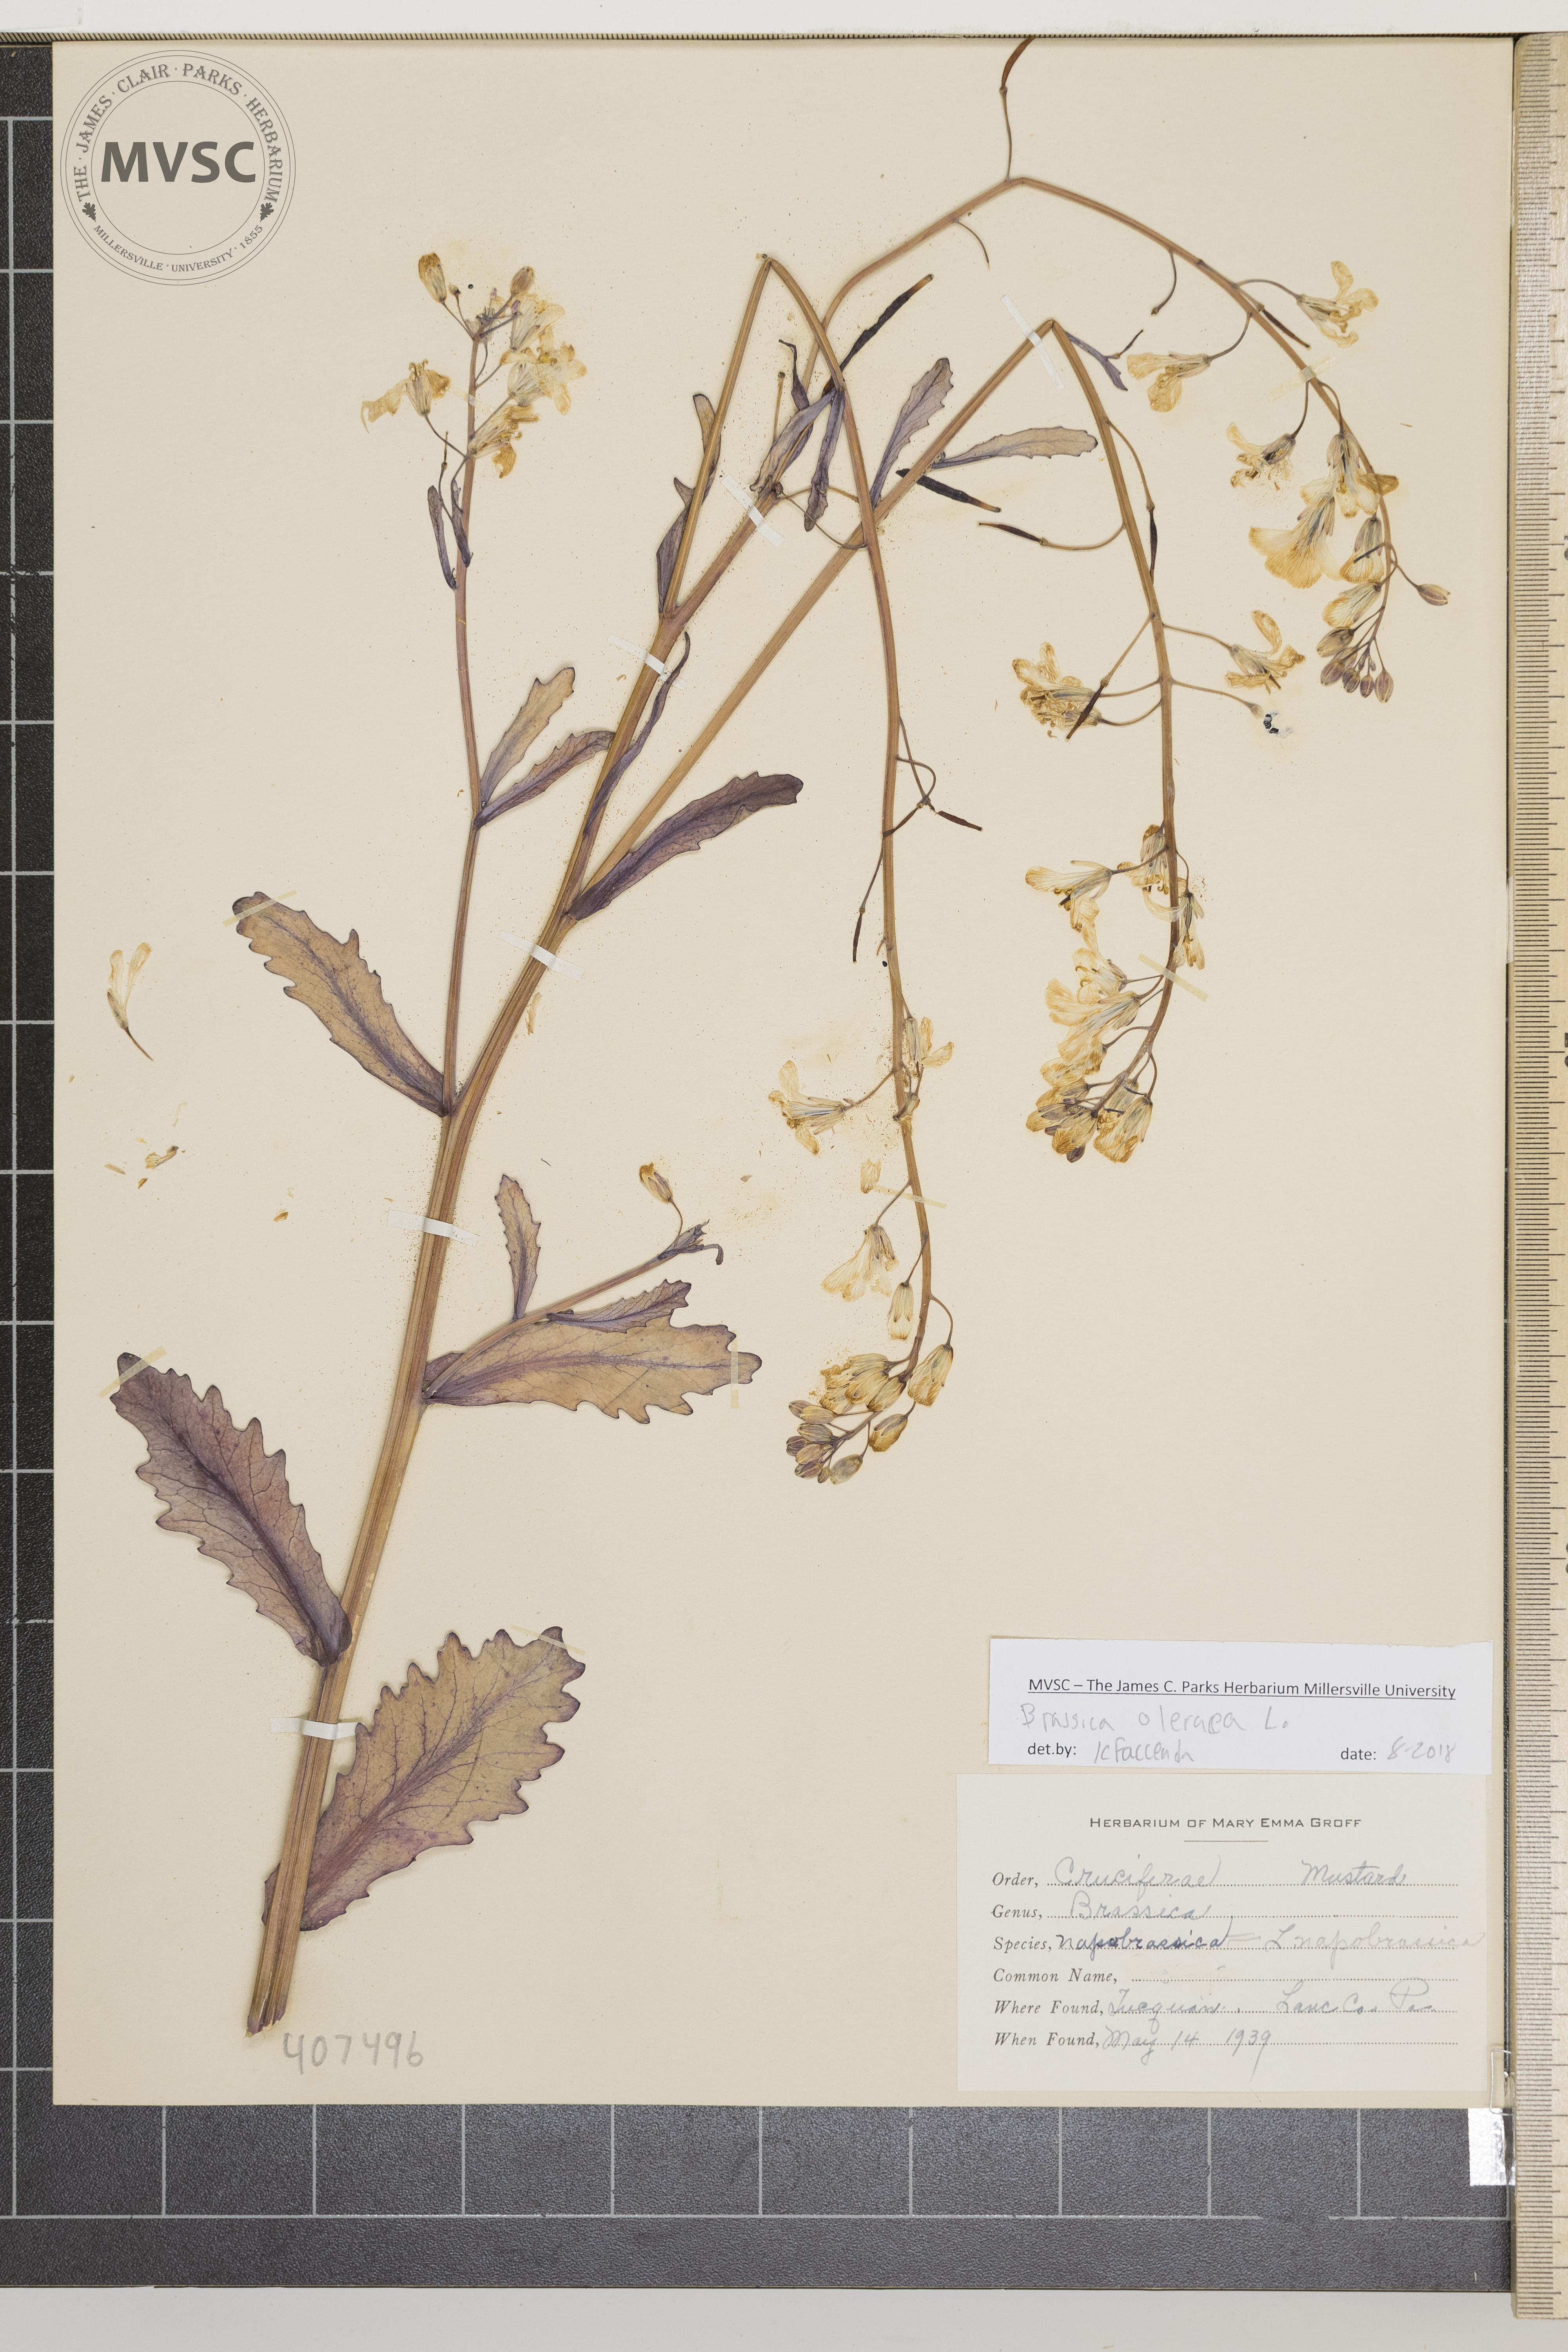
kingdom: Plantae
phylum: Tracheophyta
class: Magnoliopsida
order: Brassicales
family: Brassicaceae
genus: Brassica
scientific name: Brassica oleracea
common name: Cabbage
